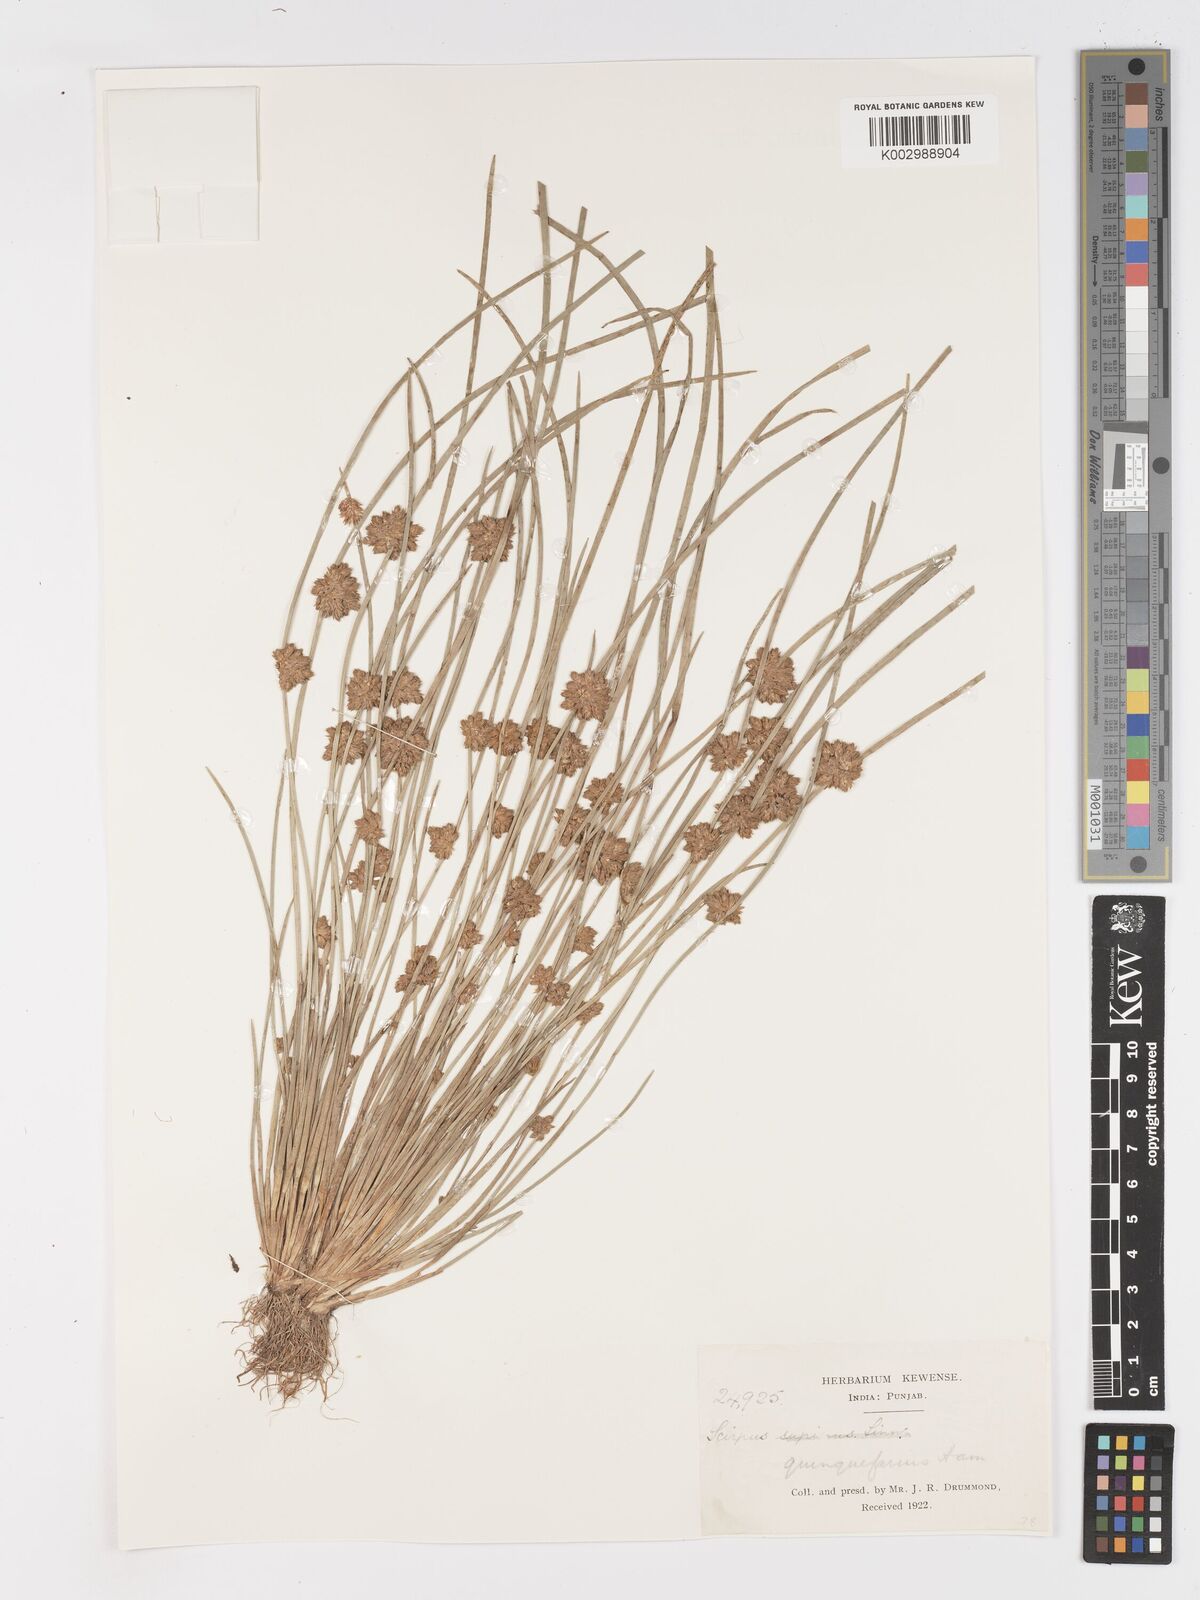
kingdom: Plantae
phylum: Tracheophyta
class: Liliopsida
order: Poales
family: Cyperaceae
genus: Schoenoplectiella
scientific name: Schoenoplectiella roylei
